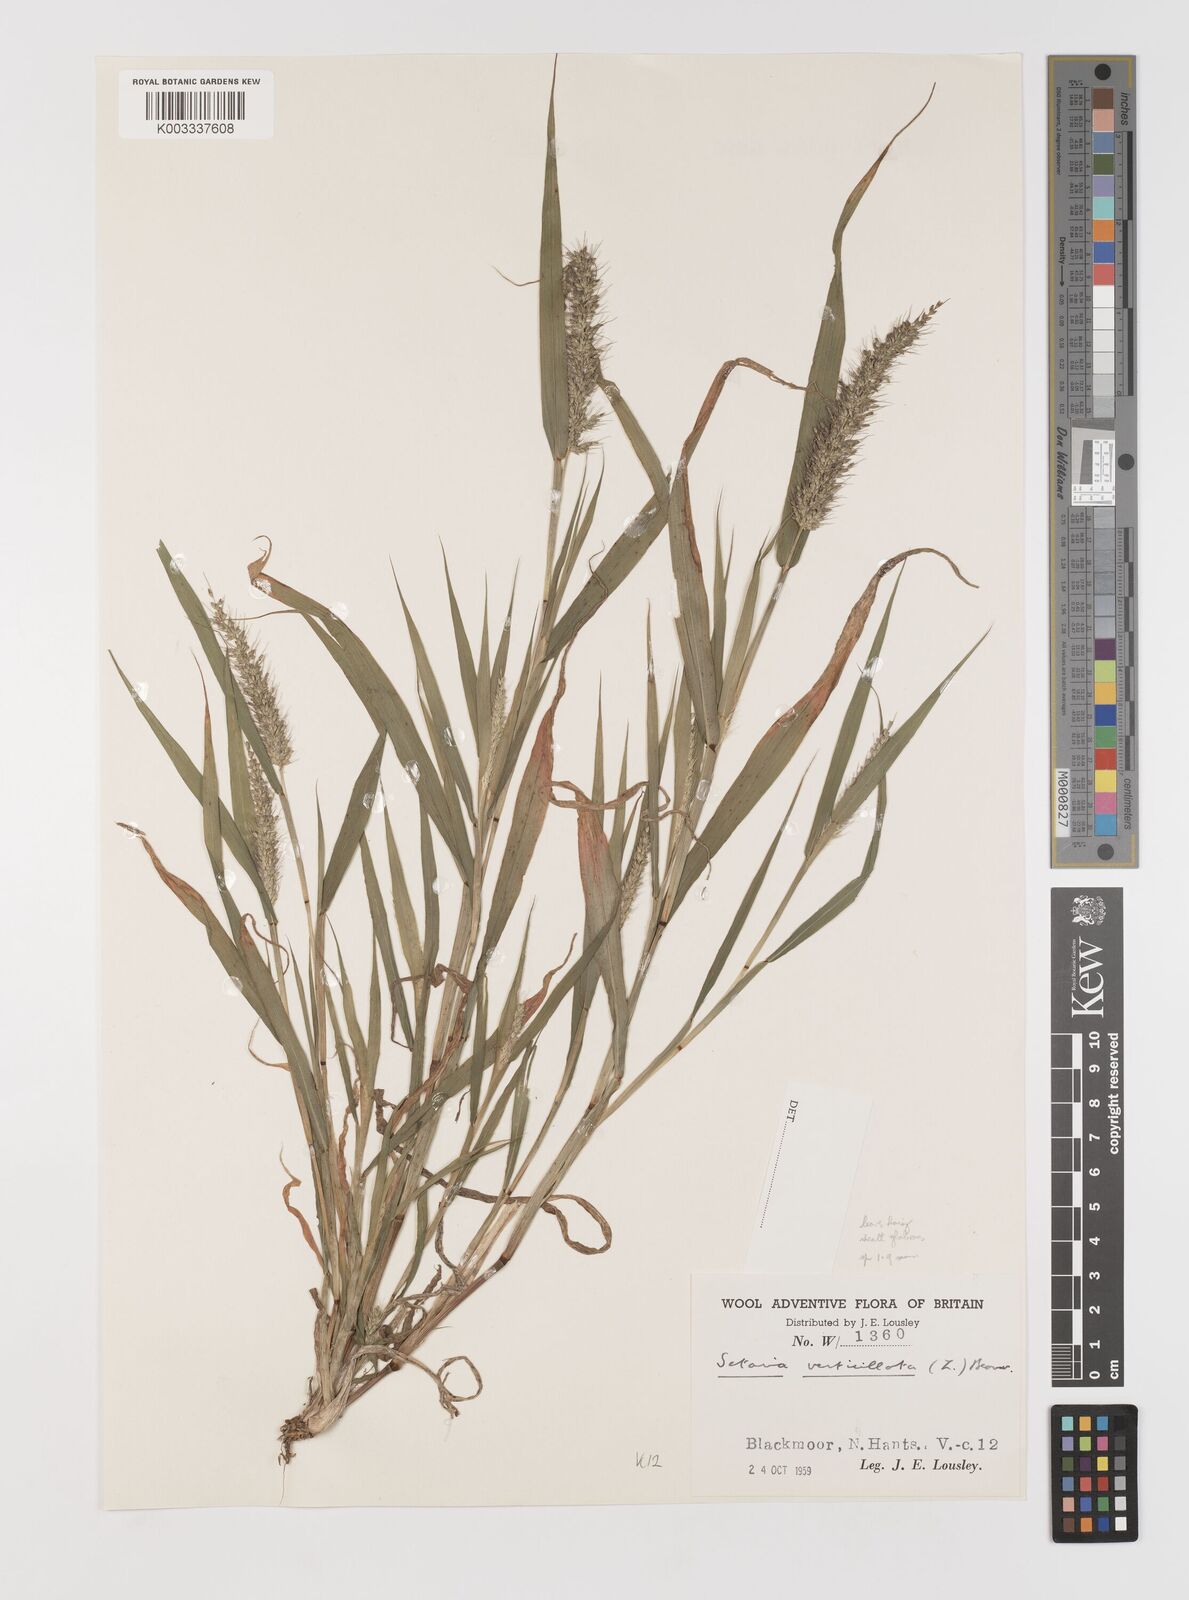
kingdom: Plantae
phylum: Tracheophyta
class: Liliopsida
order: Poales
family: Poaceae
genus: Setaria
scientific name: Setaria verticillata
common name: Hooked bristlegrass
